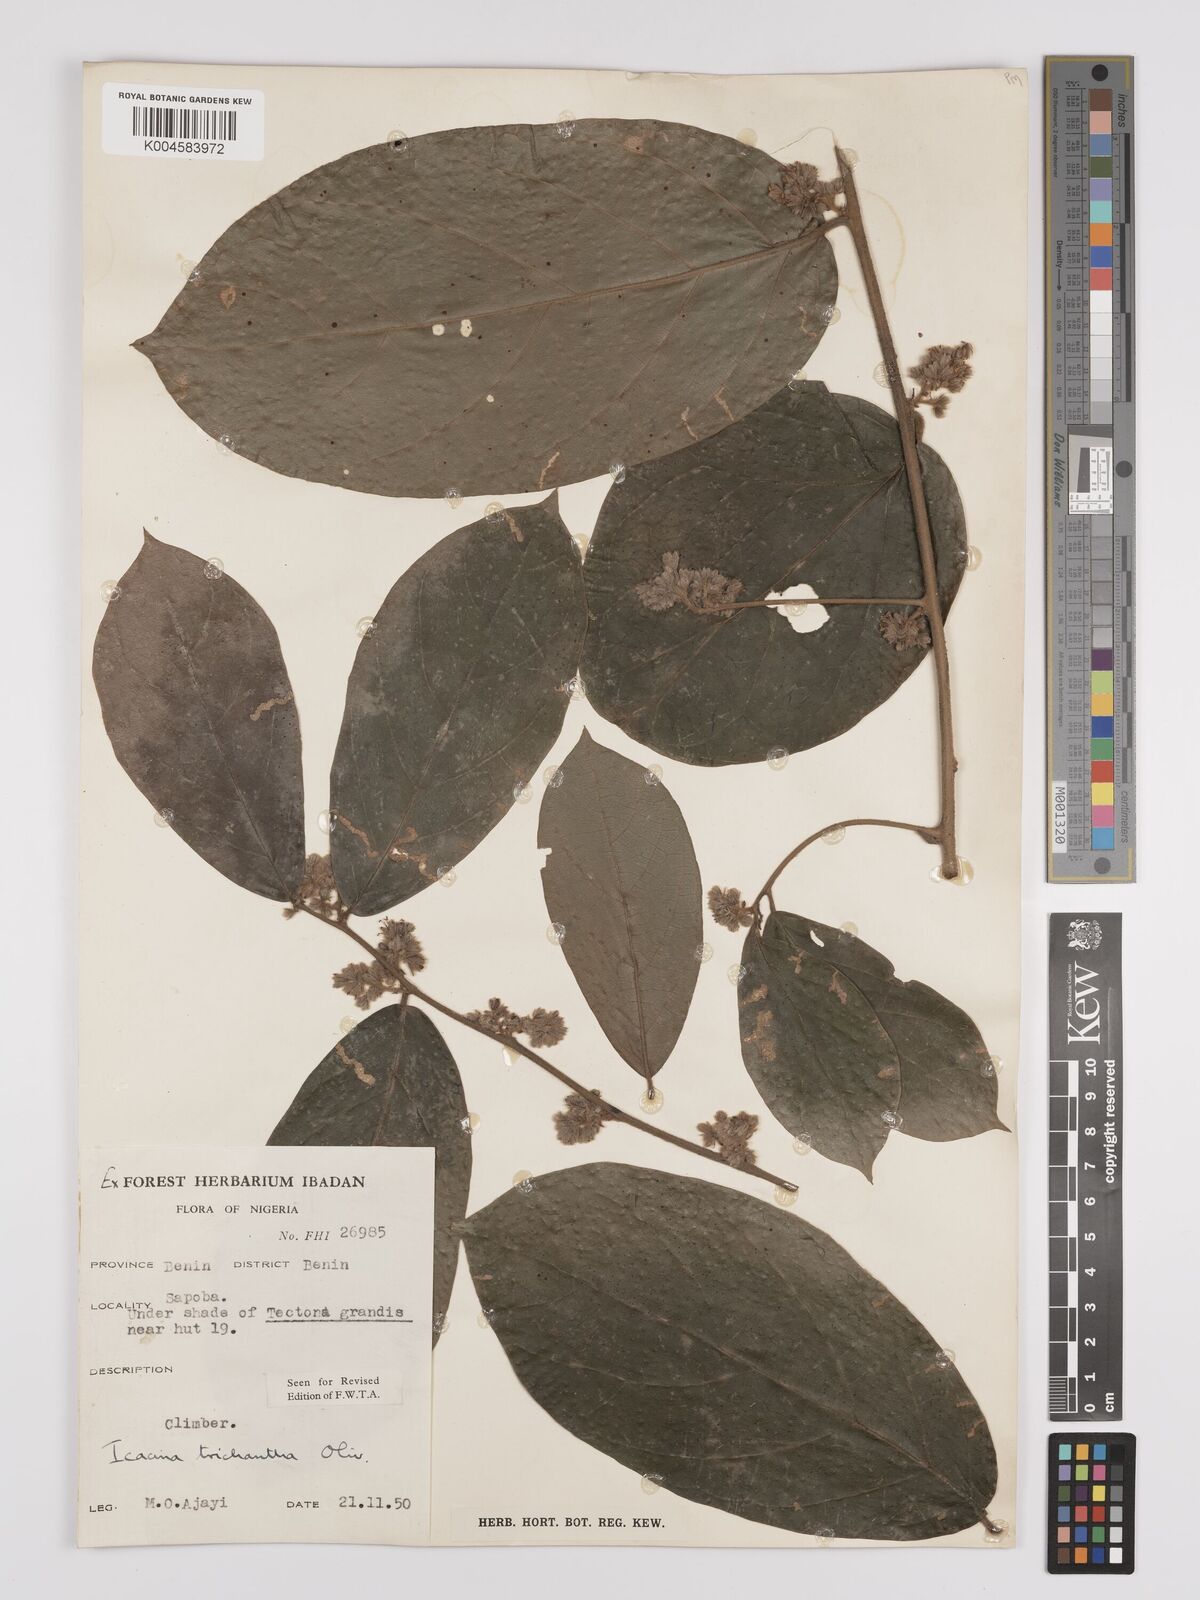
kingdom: Plantae
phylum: Tracheophyta
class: Magnoliopsida
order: Icacinales
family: Icacinaceae
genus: Icacina
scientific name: Icacina trichantha
